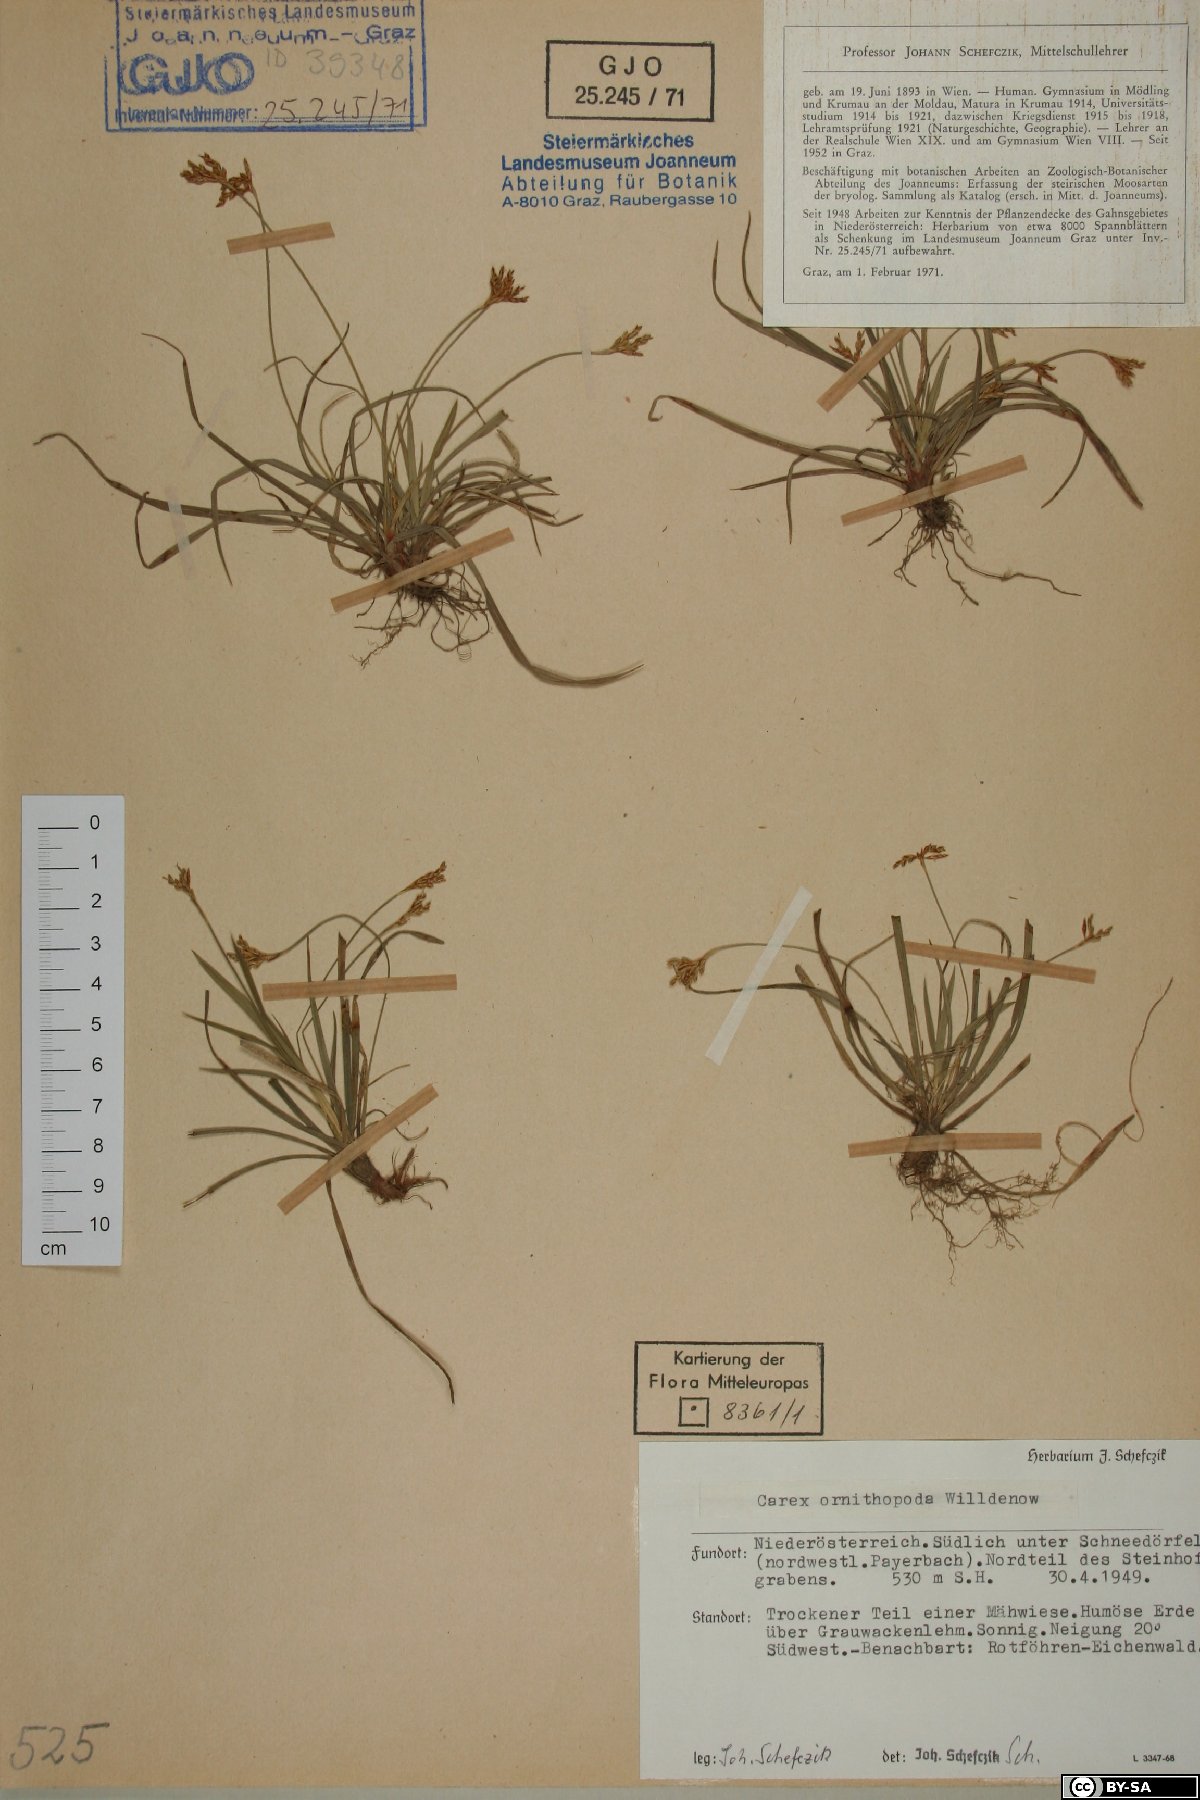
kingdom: Plantae
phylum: Tracheophyta
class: Liliopsida
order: Poales
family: Cyperaceae
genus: Carex
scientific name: Carex ornithopoda
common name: Bird's-foot sedge
